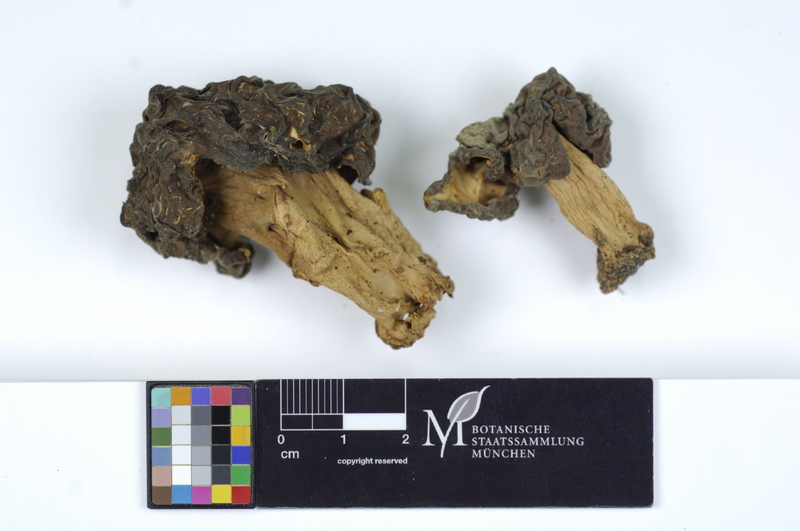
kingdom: Fungi
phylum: Ascomycota
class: Pezizomycetes
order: Pezizales
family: Discinaceae
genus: Gyromitra
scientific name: Gyromitra esculenta
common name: False morel
